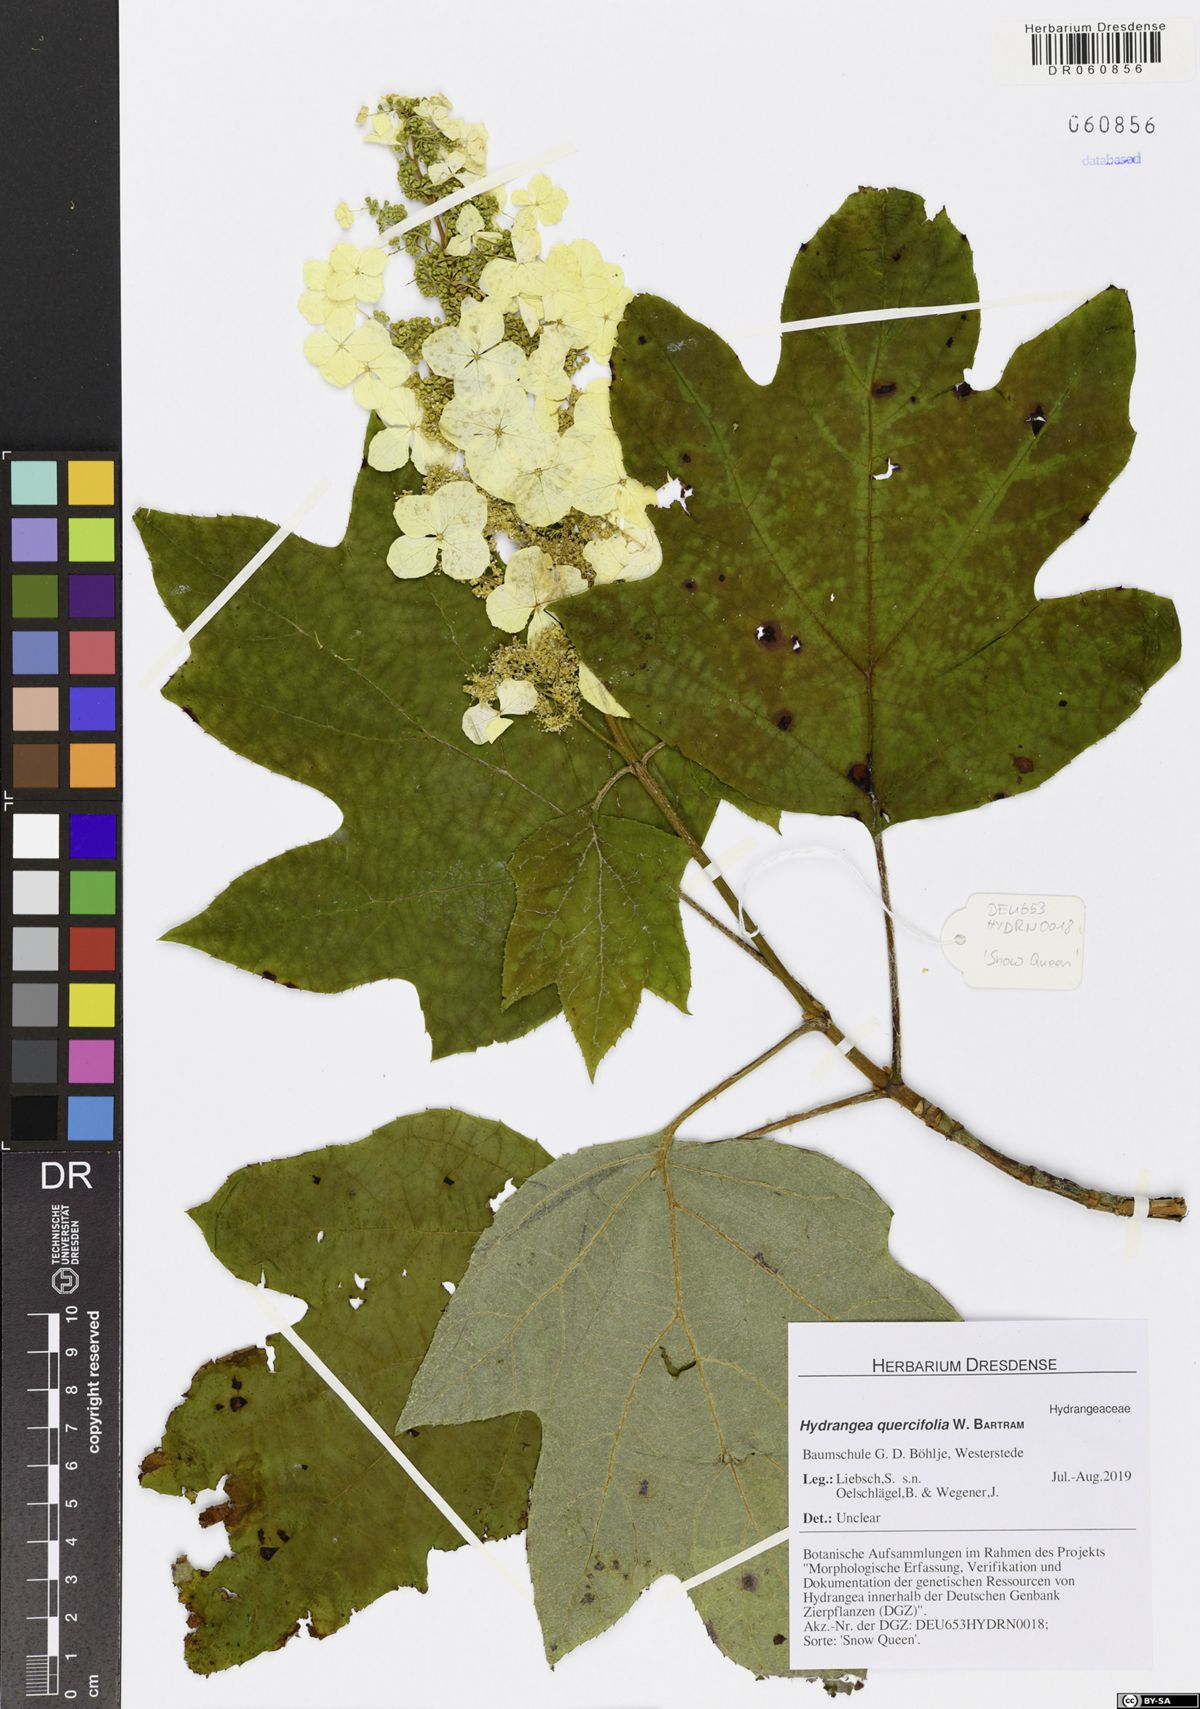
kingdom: Plantae
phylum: Tracheophyta
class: Magnoliopsida
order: Cornales
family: Hydrangeaceae
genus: Hydrangea
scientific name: Hydrangea quercifolia
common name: Oak-leaf hydrangea
